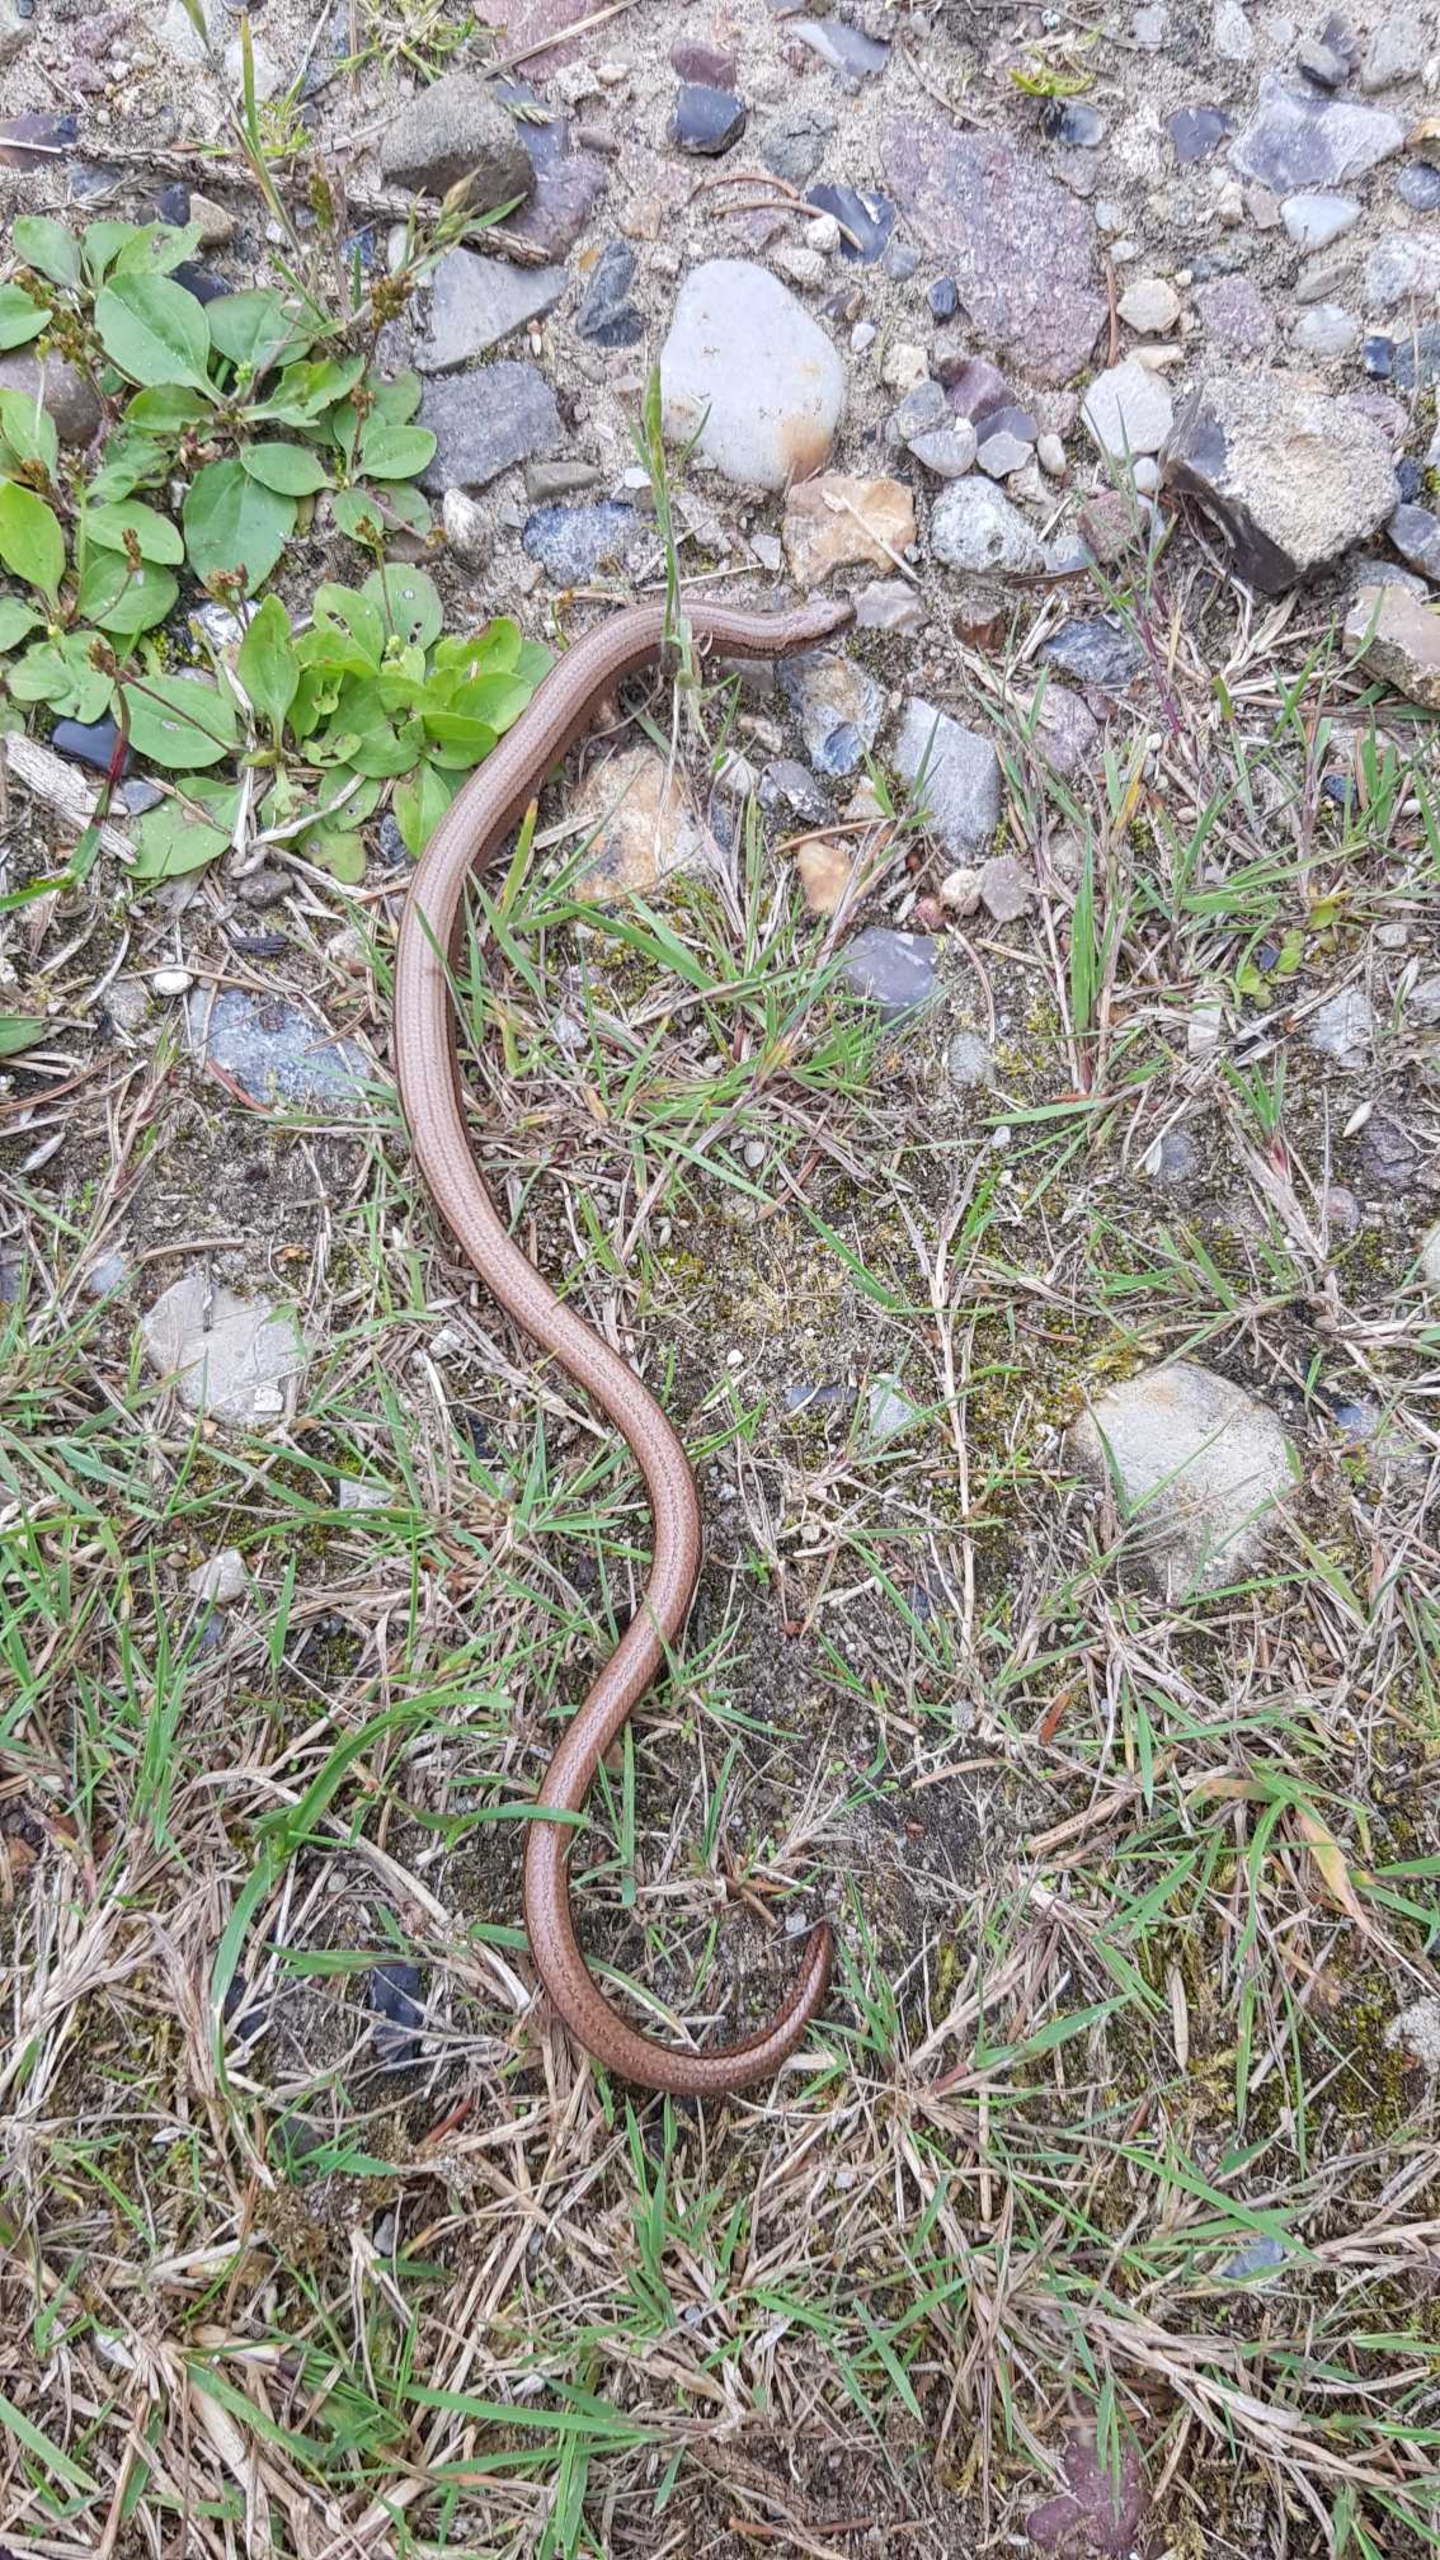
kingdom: Animalia
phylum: Chordata
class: Squamata
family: Anguidae
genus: Anguis
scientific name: Anguis fragilis
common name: Stålorm
